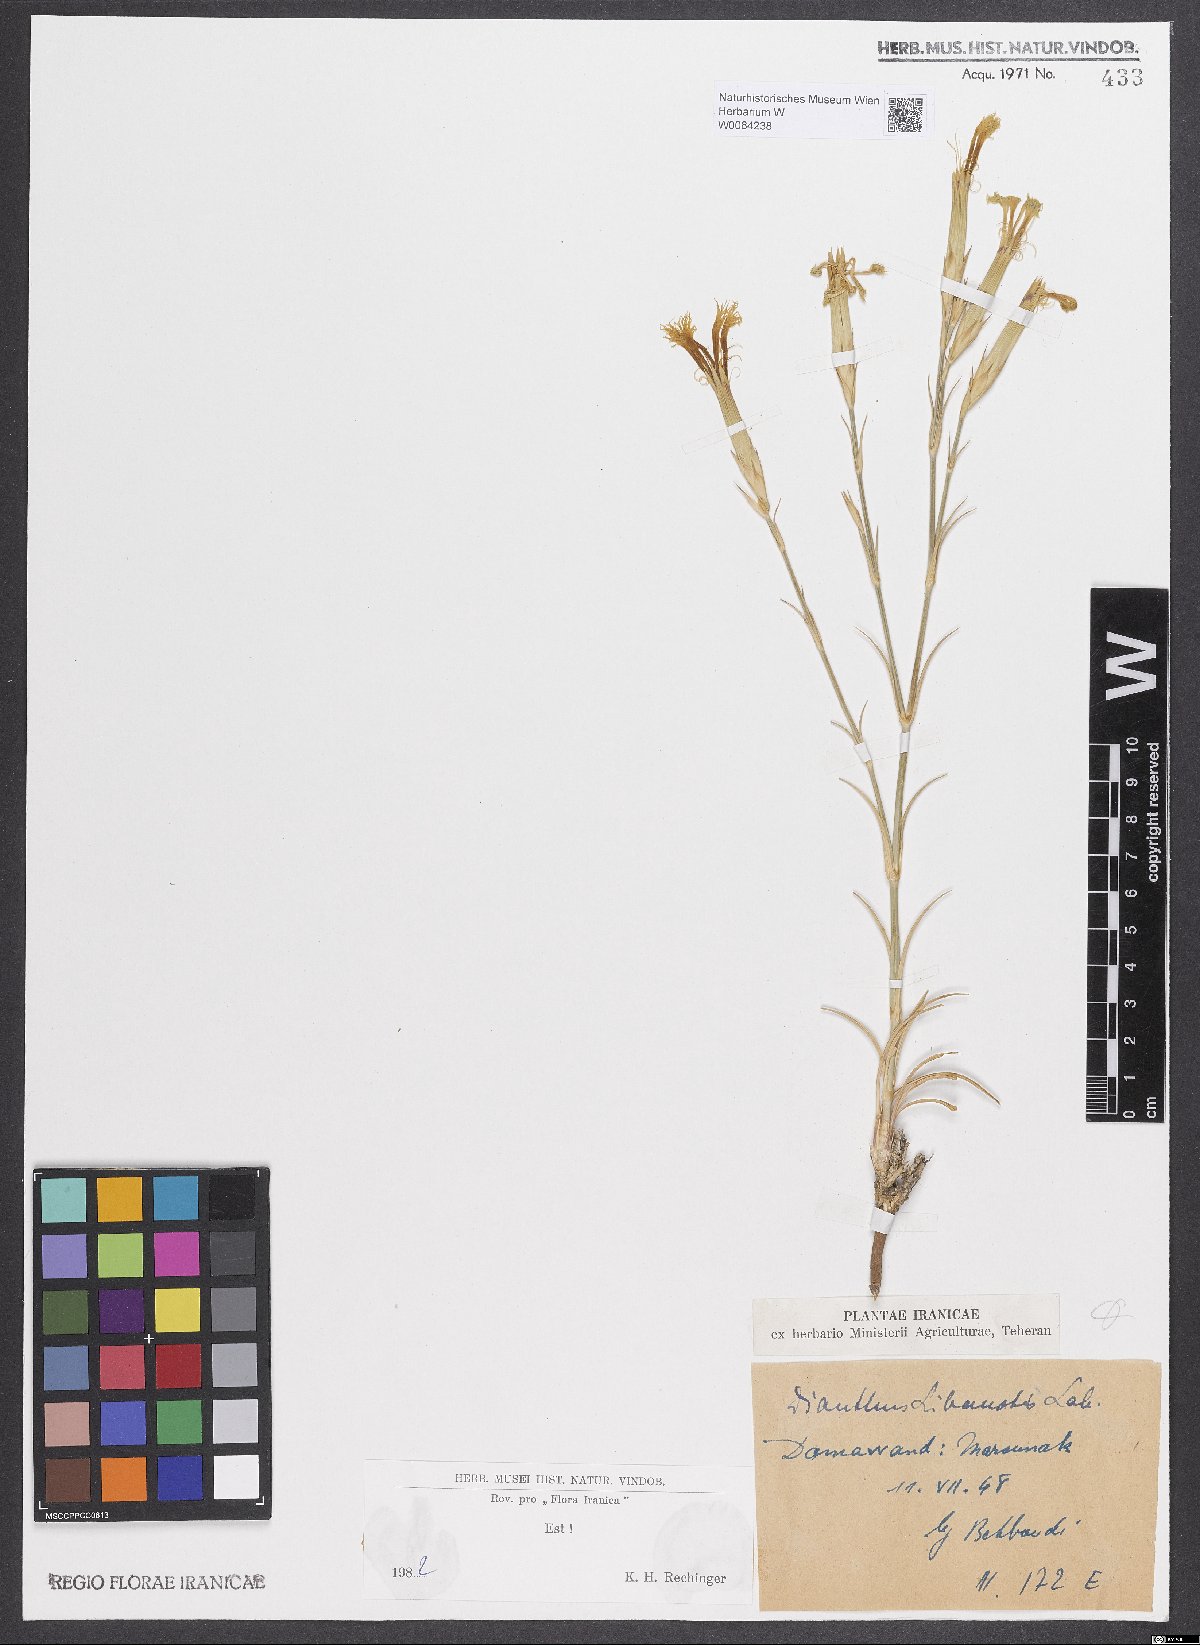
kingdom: Plantae
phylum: Tracheophyta
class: Magnoliopsida
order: Caryophyllales
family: Caryophyllaceae
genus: Dianthus
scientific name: Dianthus libanotis
